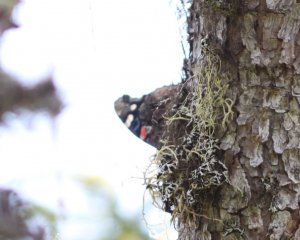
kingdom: Animalia
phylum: Arthropoda
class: Insecta
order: Lepidoptera
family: Nymphalidae
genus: Vanessa
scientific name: Vanessa atalanta
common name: Red Admiral
